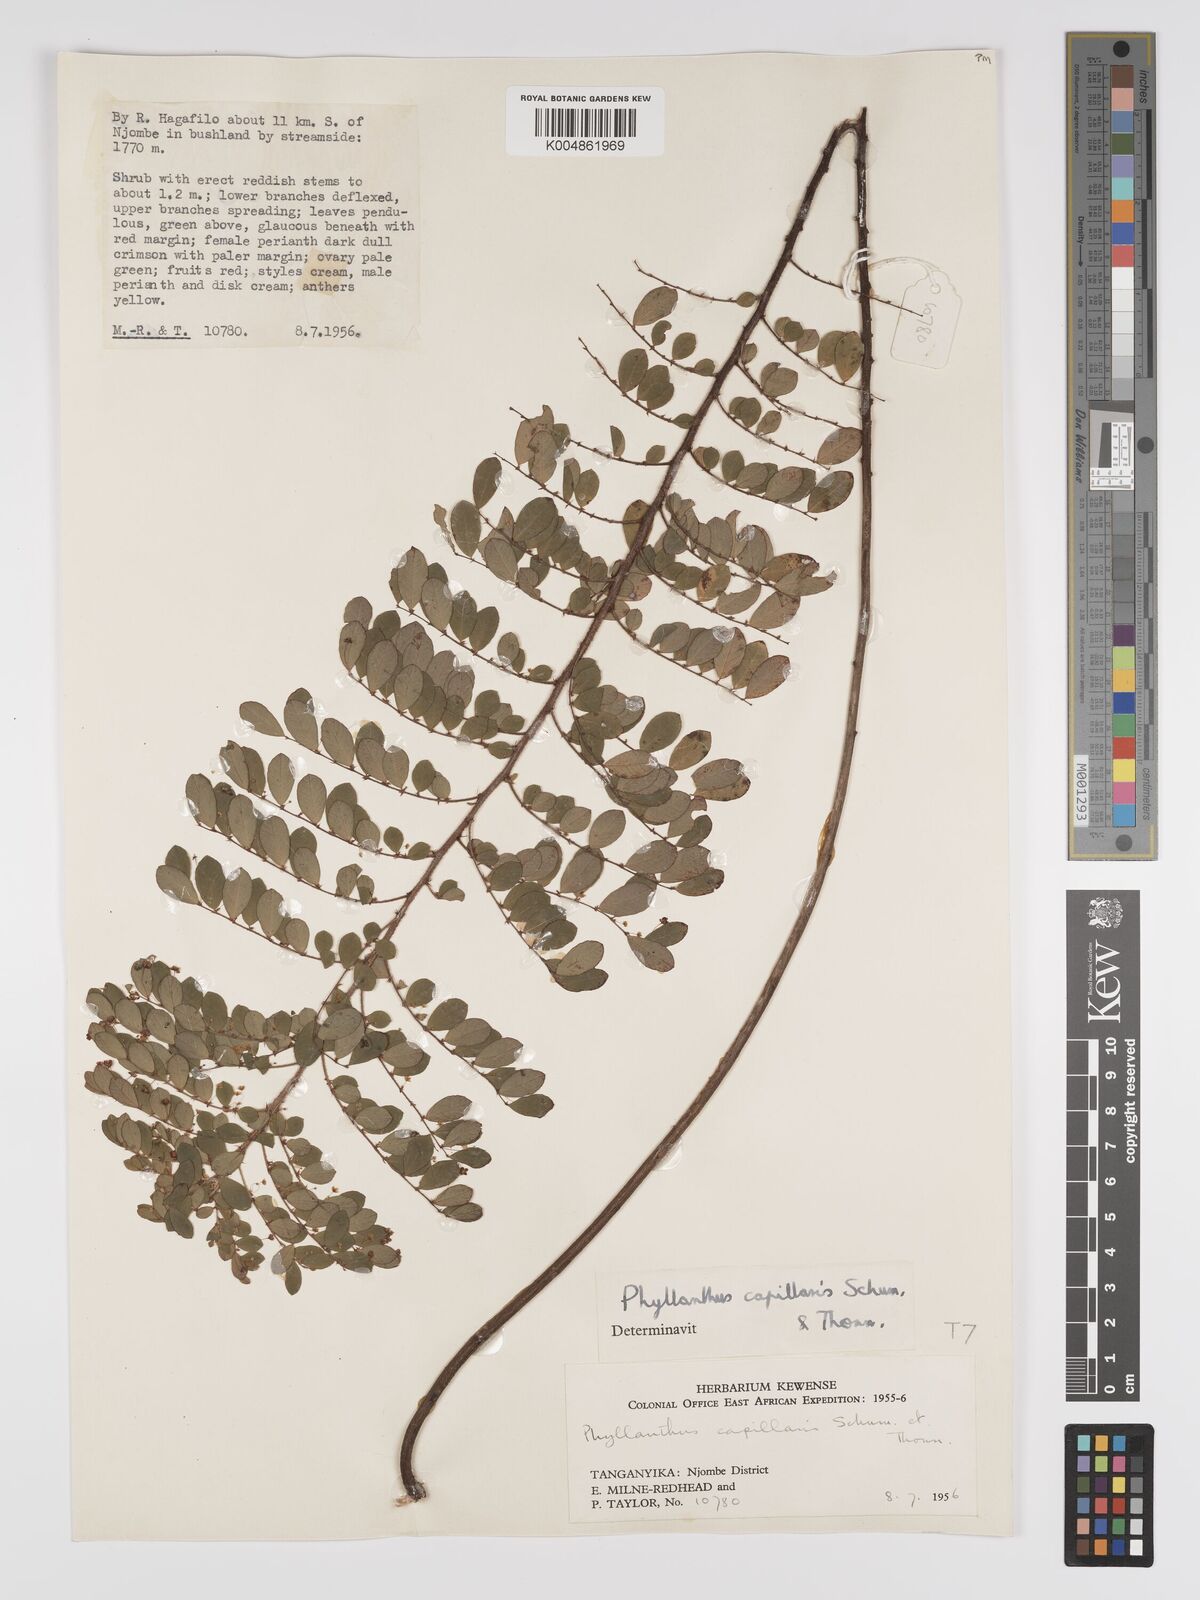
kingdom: Plantae
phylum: Tracheophyta
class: Magnoliopsida
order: Malpighiales
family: Phyllanthaceae
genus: Phyllanthus
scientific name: Phyllanthus nummulariifolius
